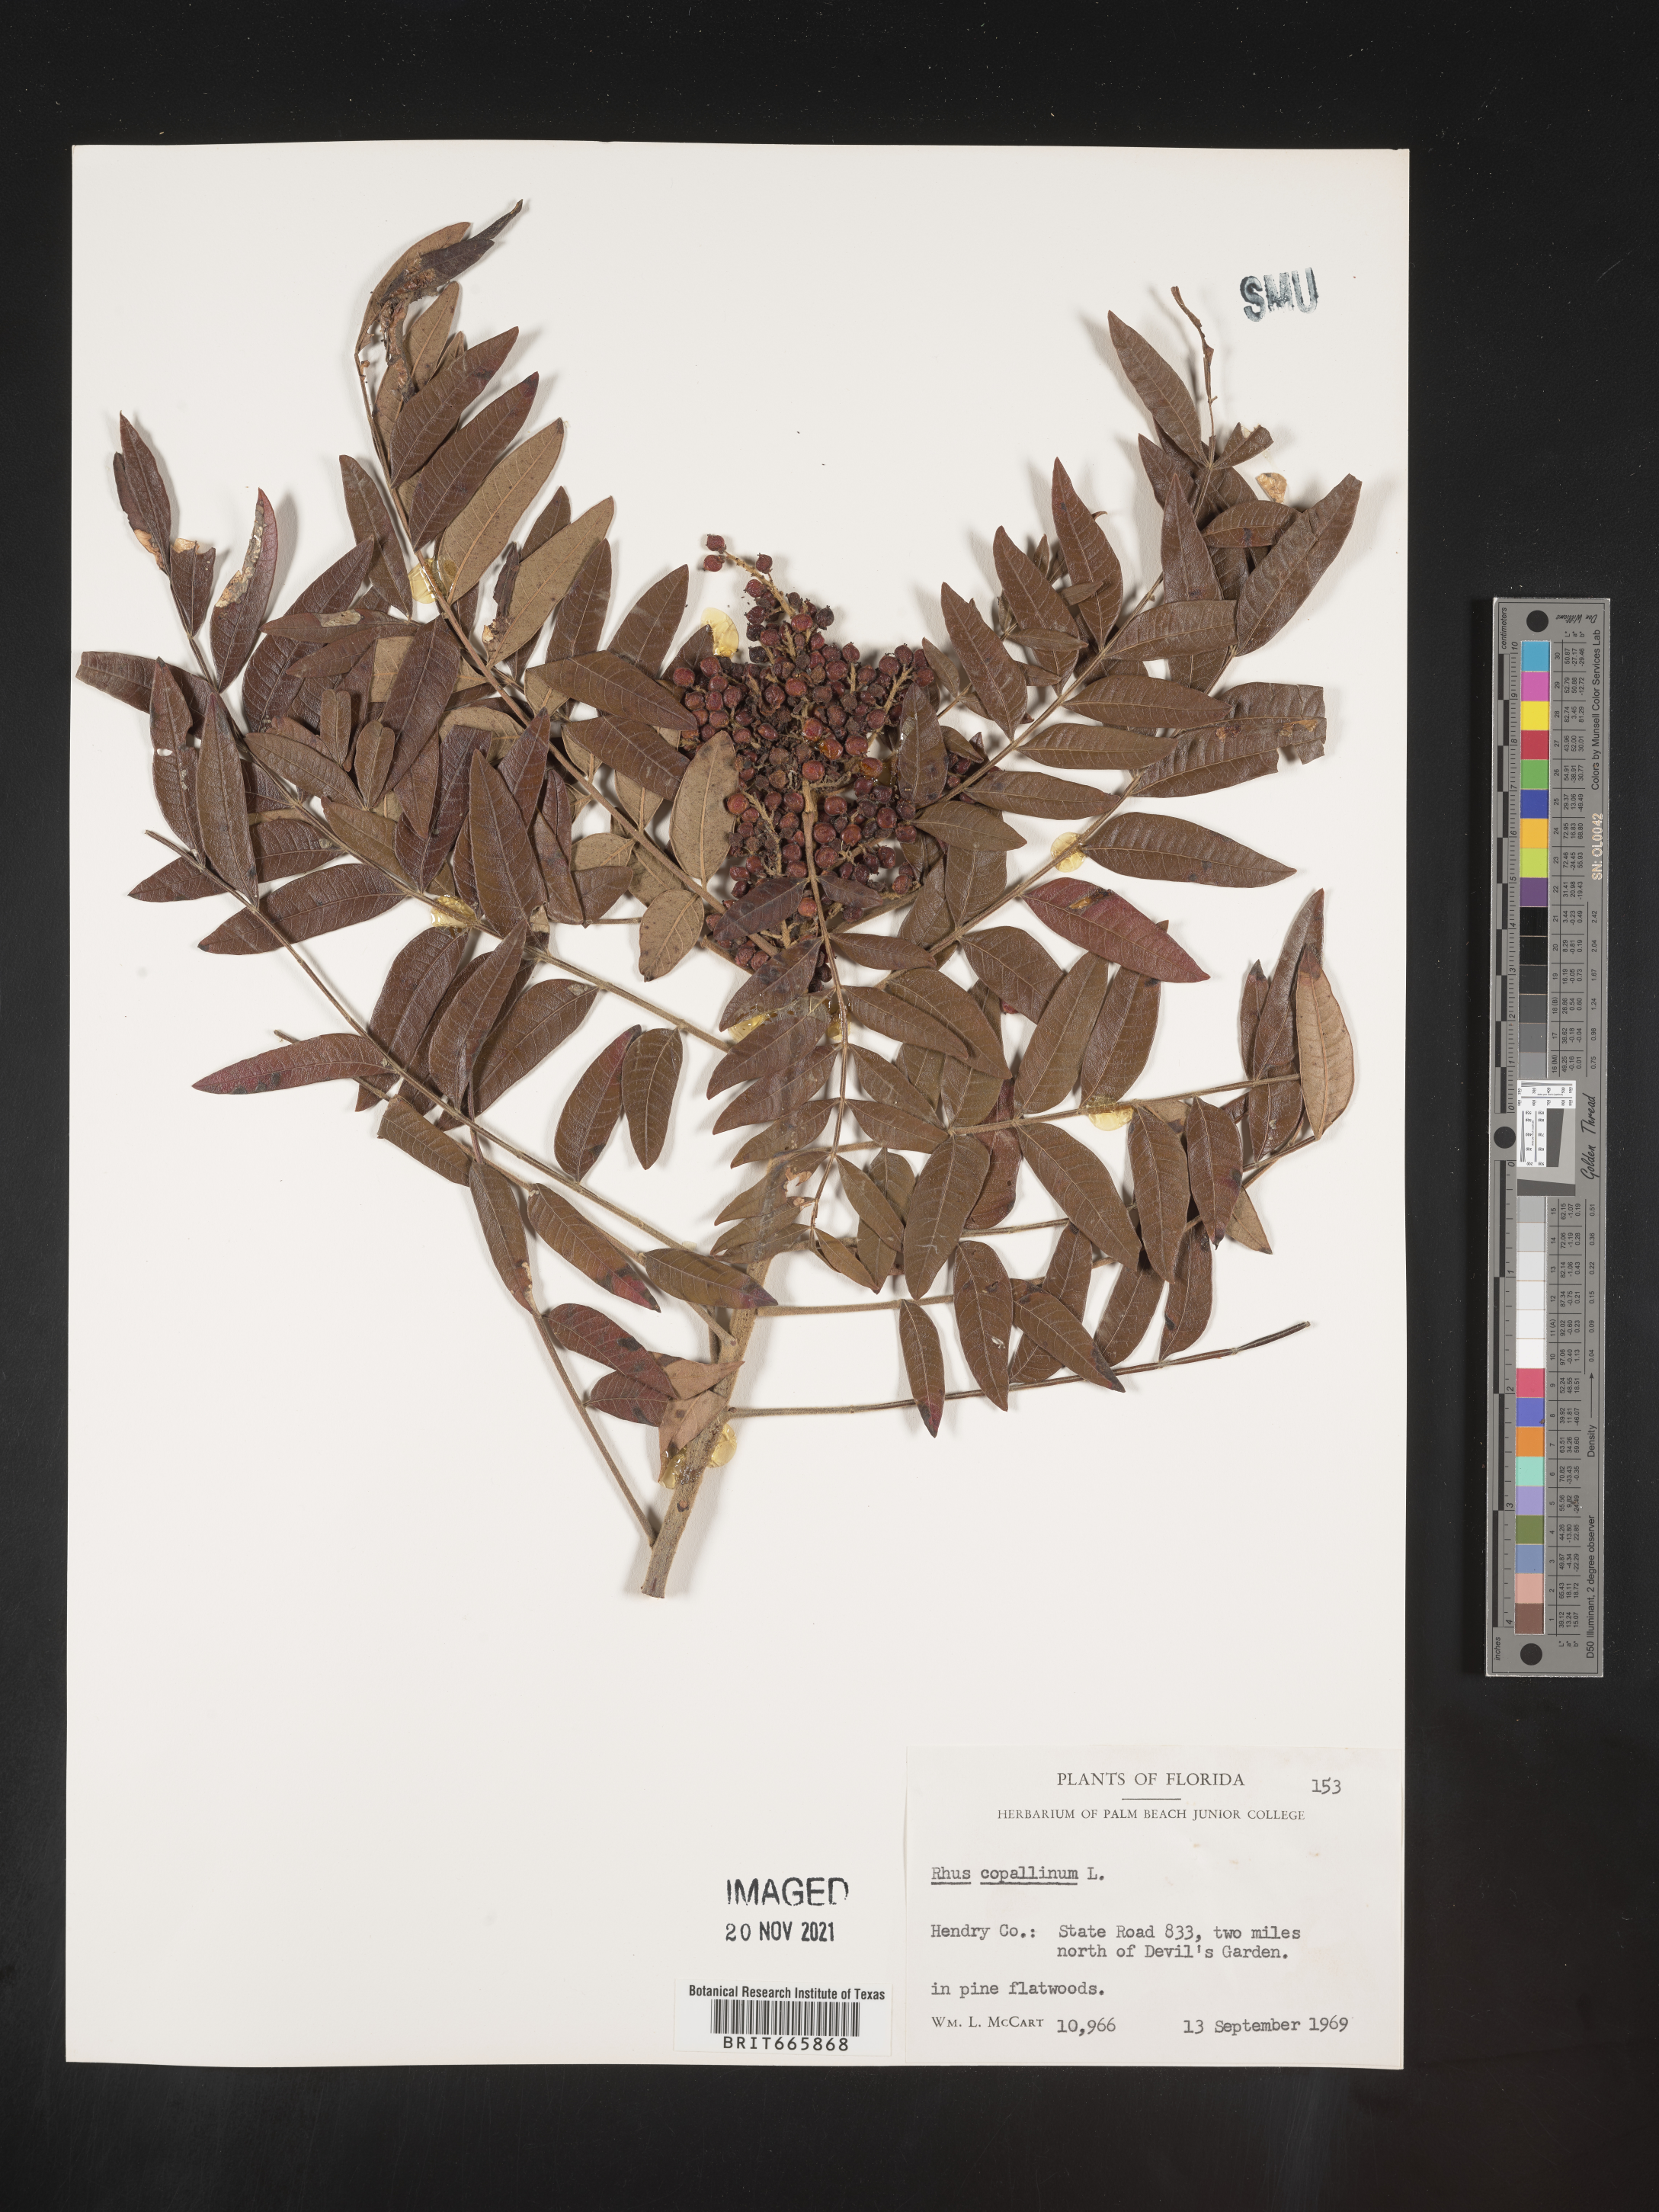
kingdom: Plantae
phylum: Tracheophyta
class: Magnoliopsida
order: Sapindales
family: Anacardiaceae
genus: Rhus
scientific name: Rhus copallina
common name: Shining sumac
